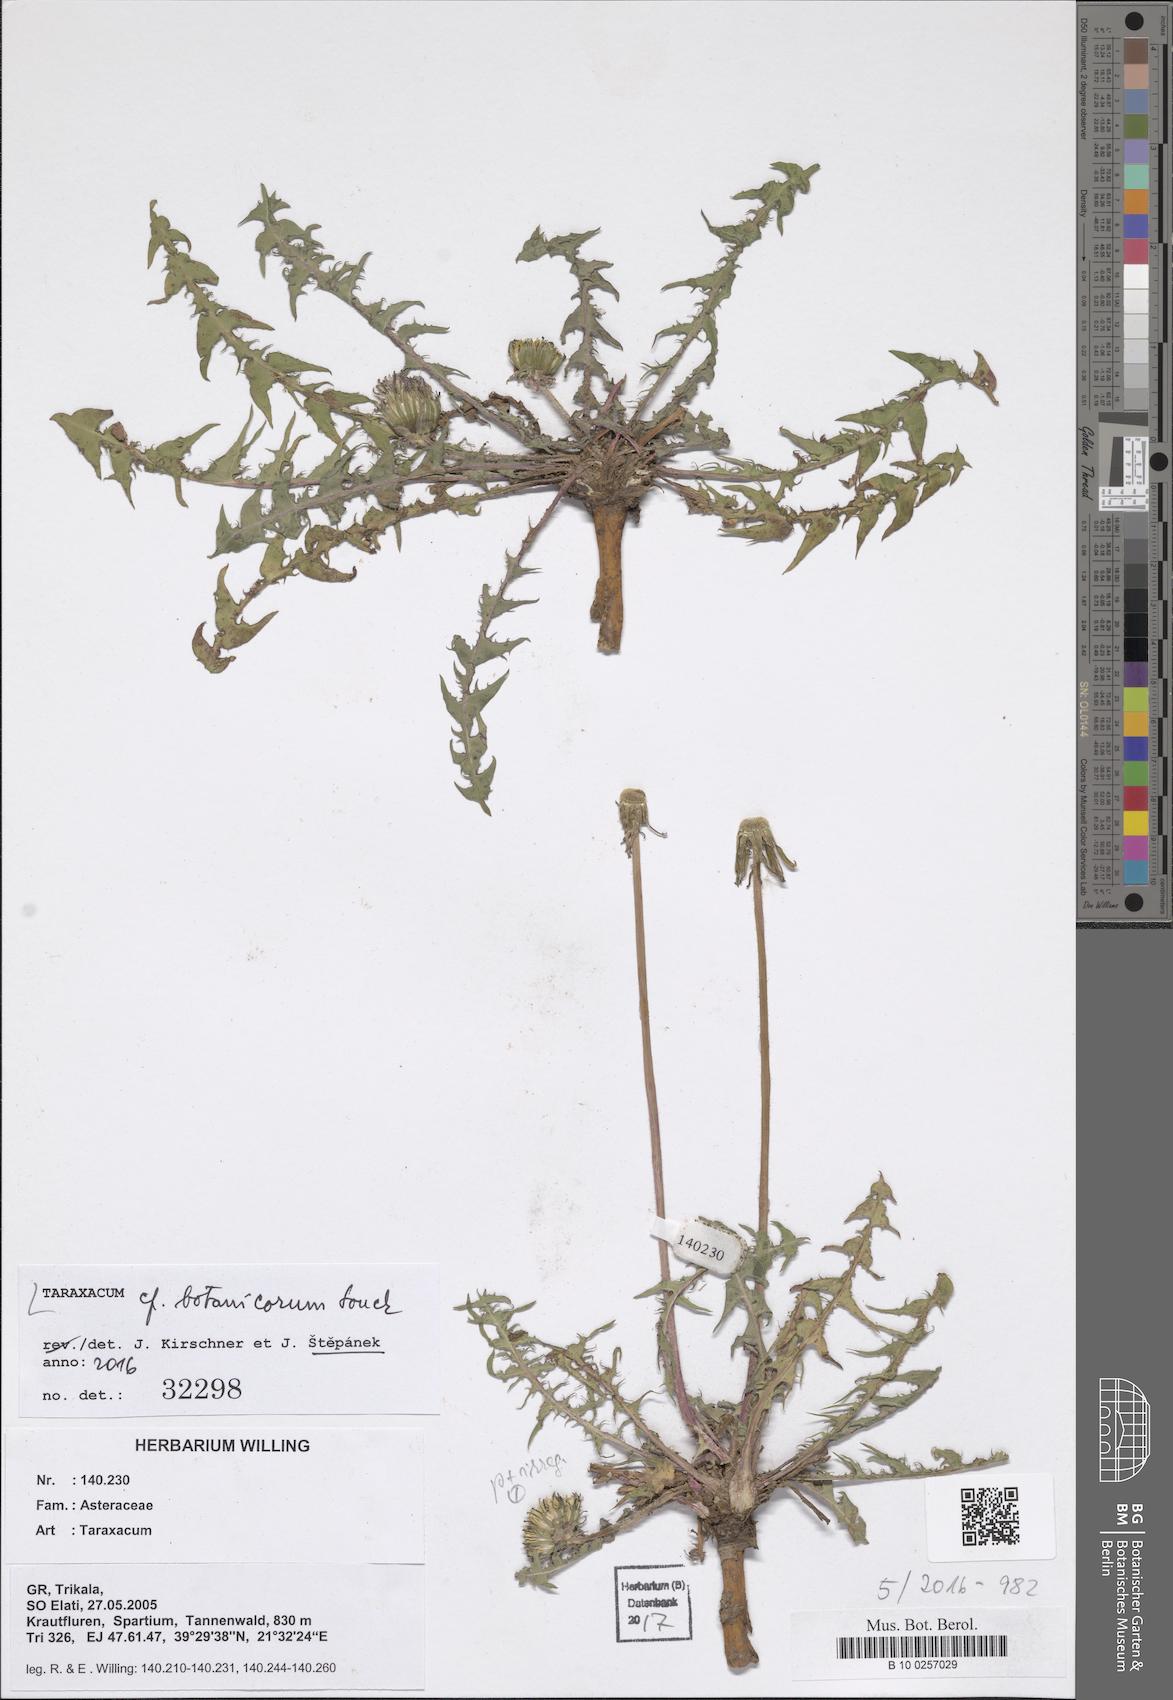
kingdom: Plantae
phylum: Tracheophyta
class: Magnoliopsida
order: Asterales
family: Asteraceae
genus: Taraxacum
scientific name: Taraxacum botanicorum
